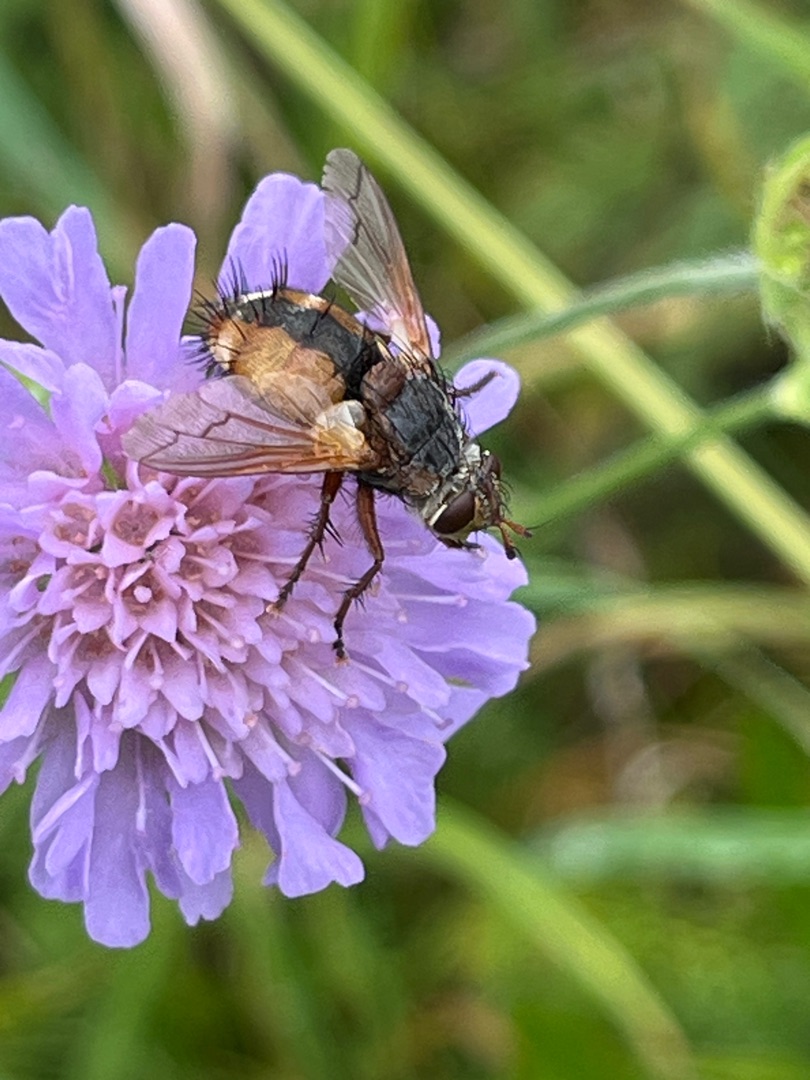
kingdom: Animalia
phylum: Arthropoda
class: Insecta
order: Diptera
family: Tachinidae
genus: Tachina
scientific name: Tachina fera
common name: Mellemfluen oskar
